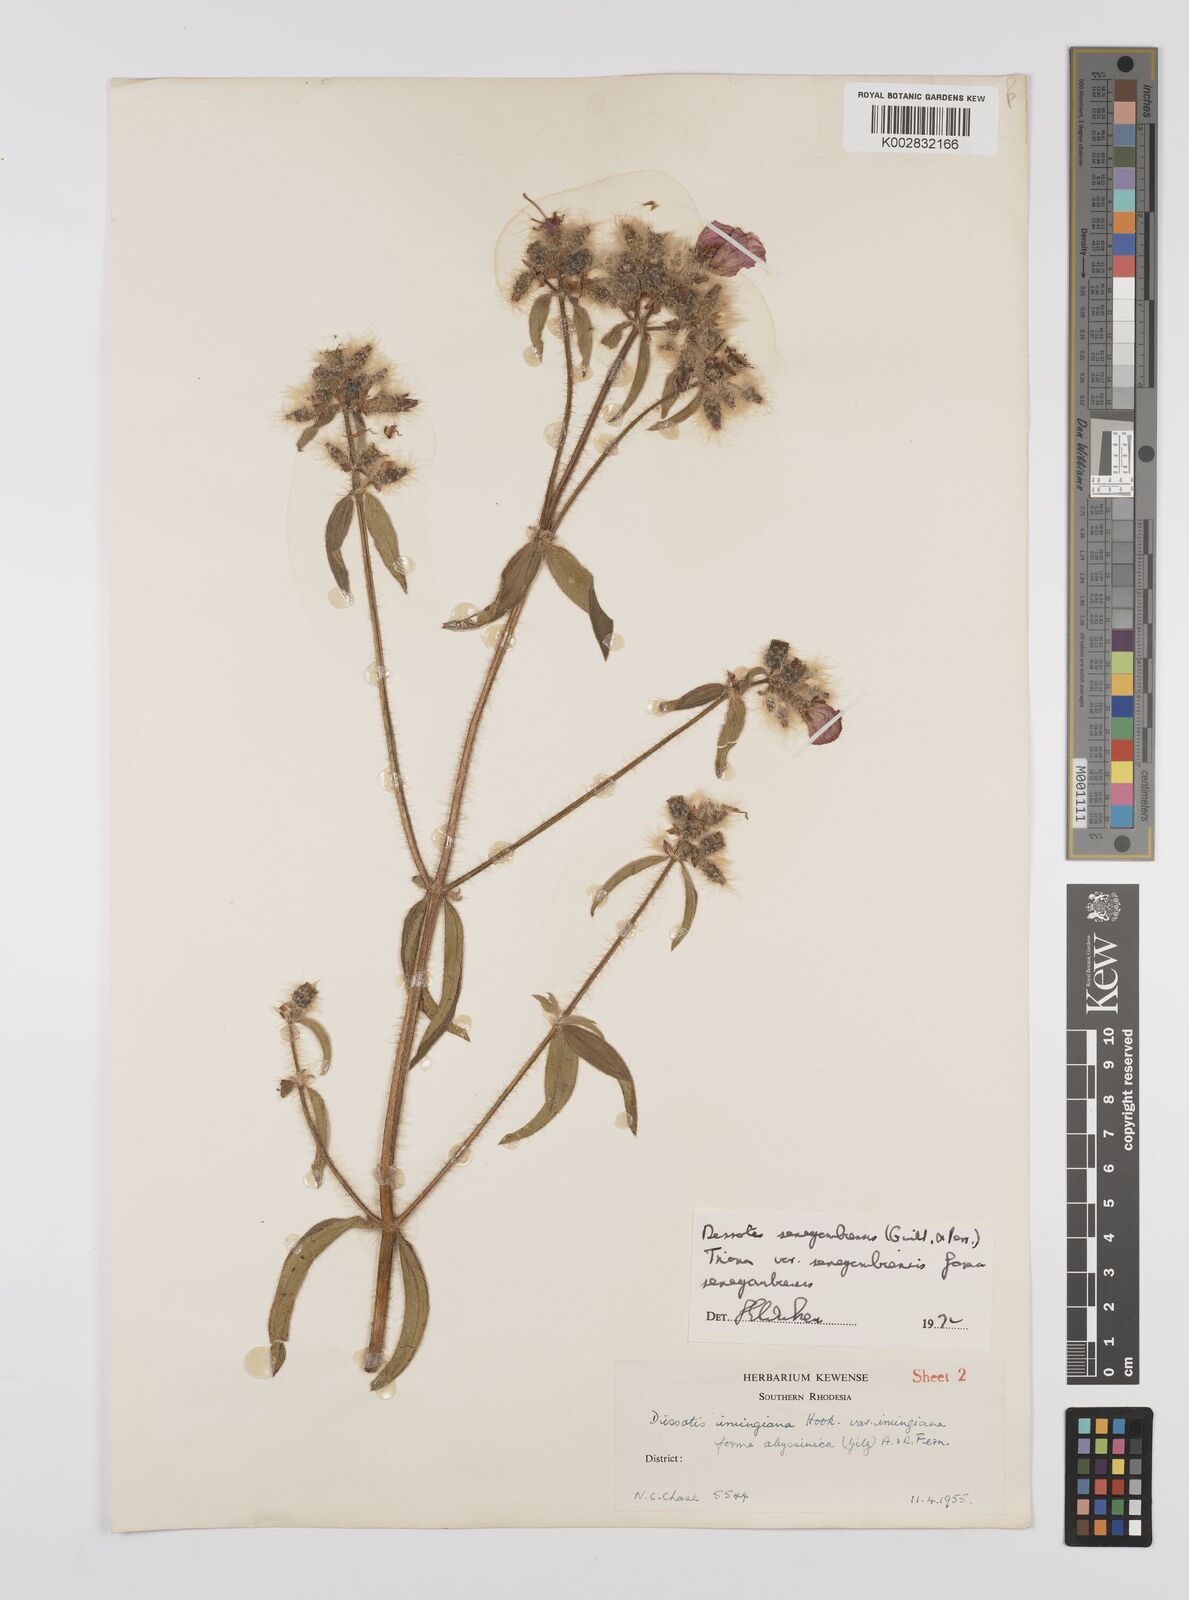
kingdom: Plantae
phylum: Tracheophyta
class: Magnoliopsida
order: Myrtales
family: Melastomataceae
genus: Nerophila
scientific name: Nerophila senegambiensis
